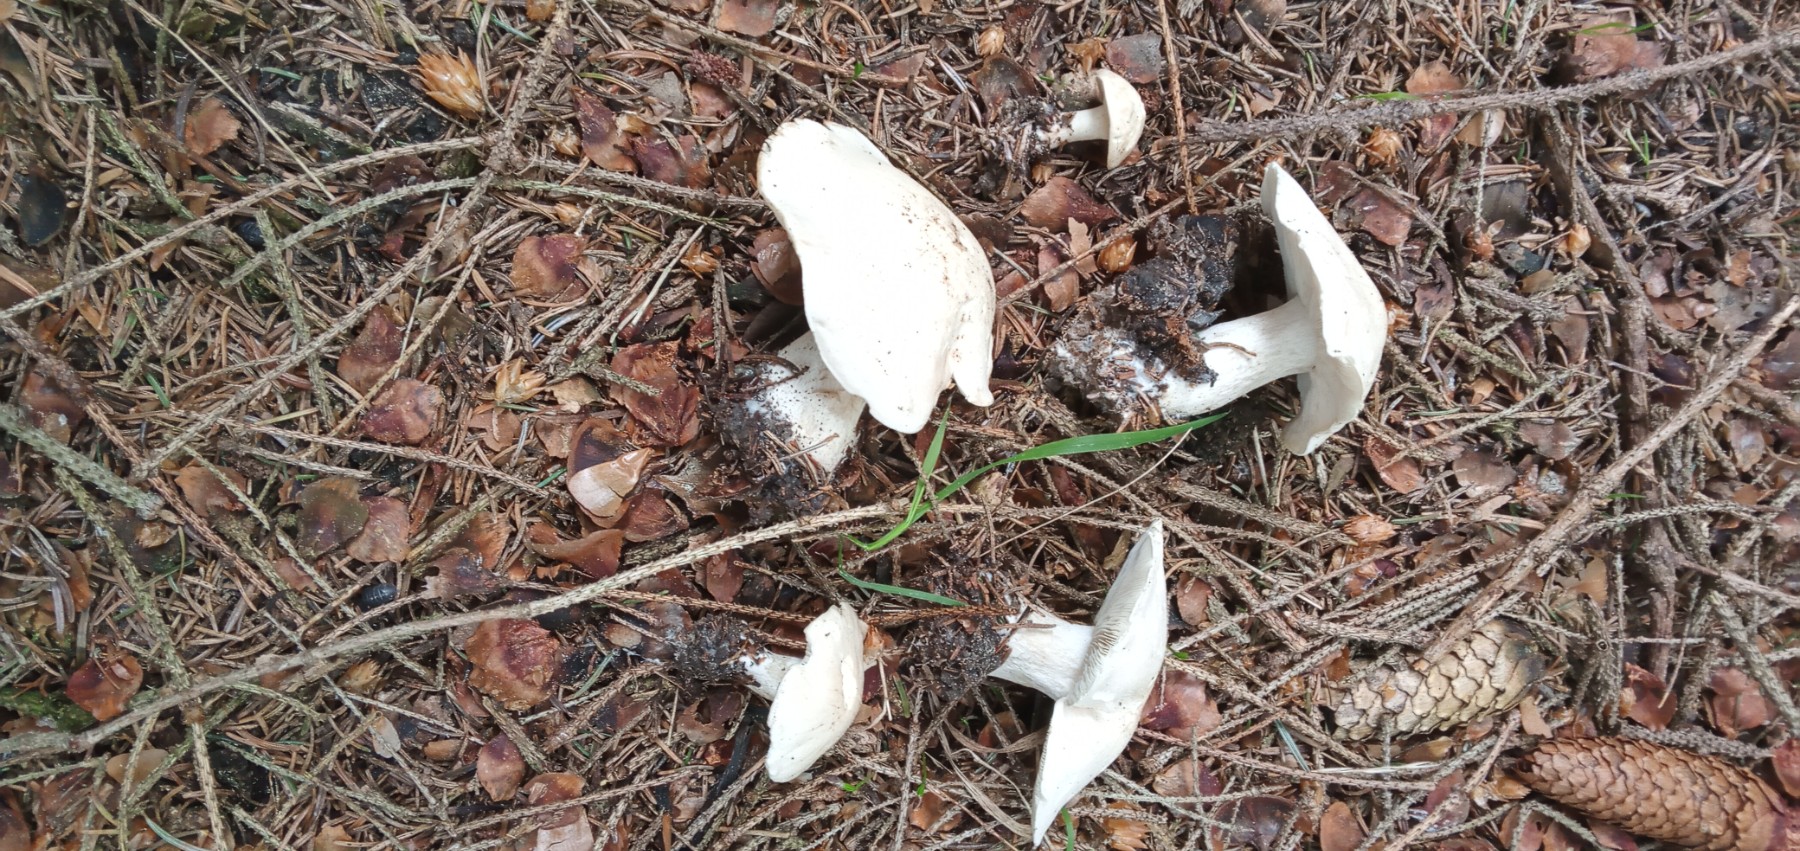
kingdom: Fungi
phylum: Basidiomycota
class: Agaricomycetes
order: Agaricales
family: Lyophyllaceae
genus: Calocybe
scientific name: Calocybe gambosa
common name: vårmusseron
